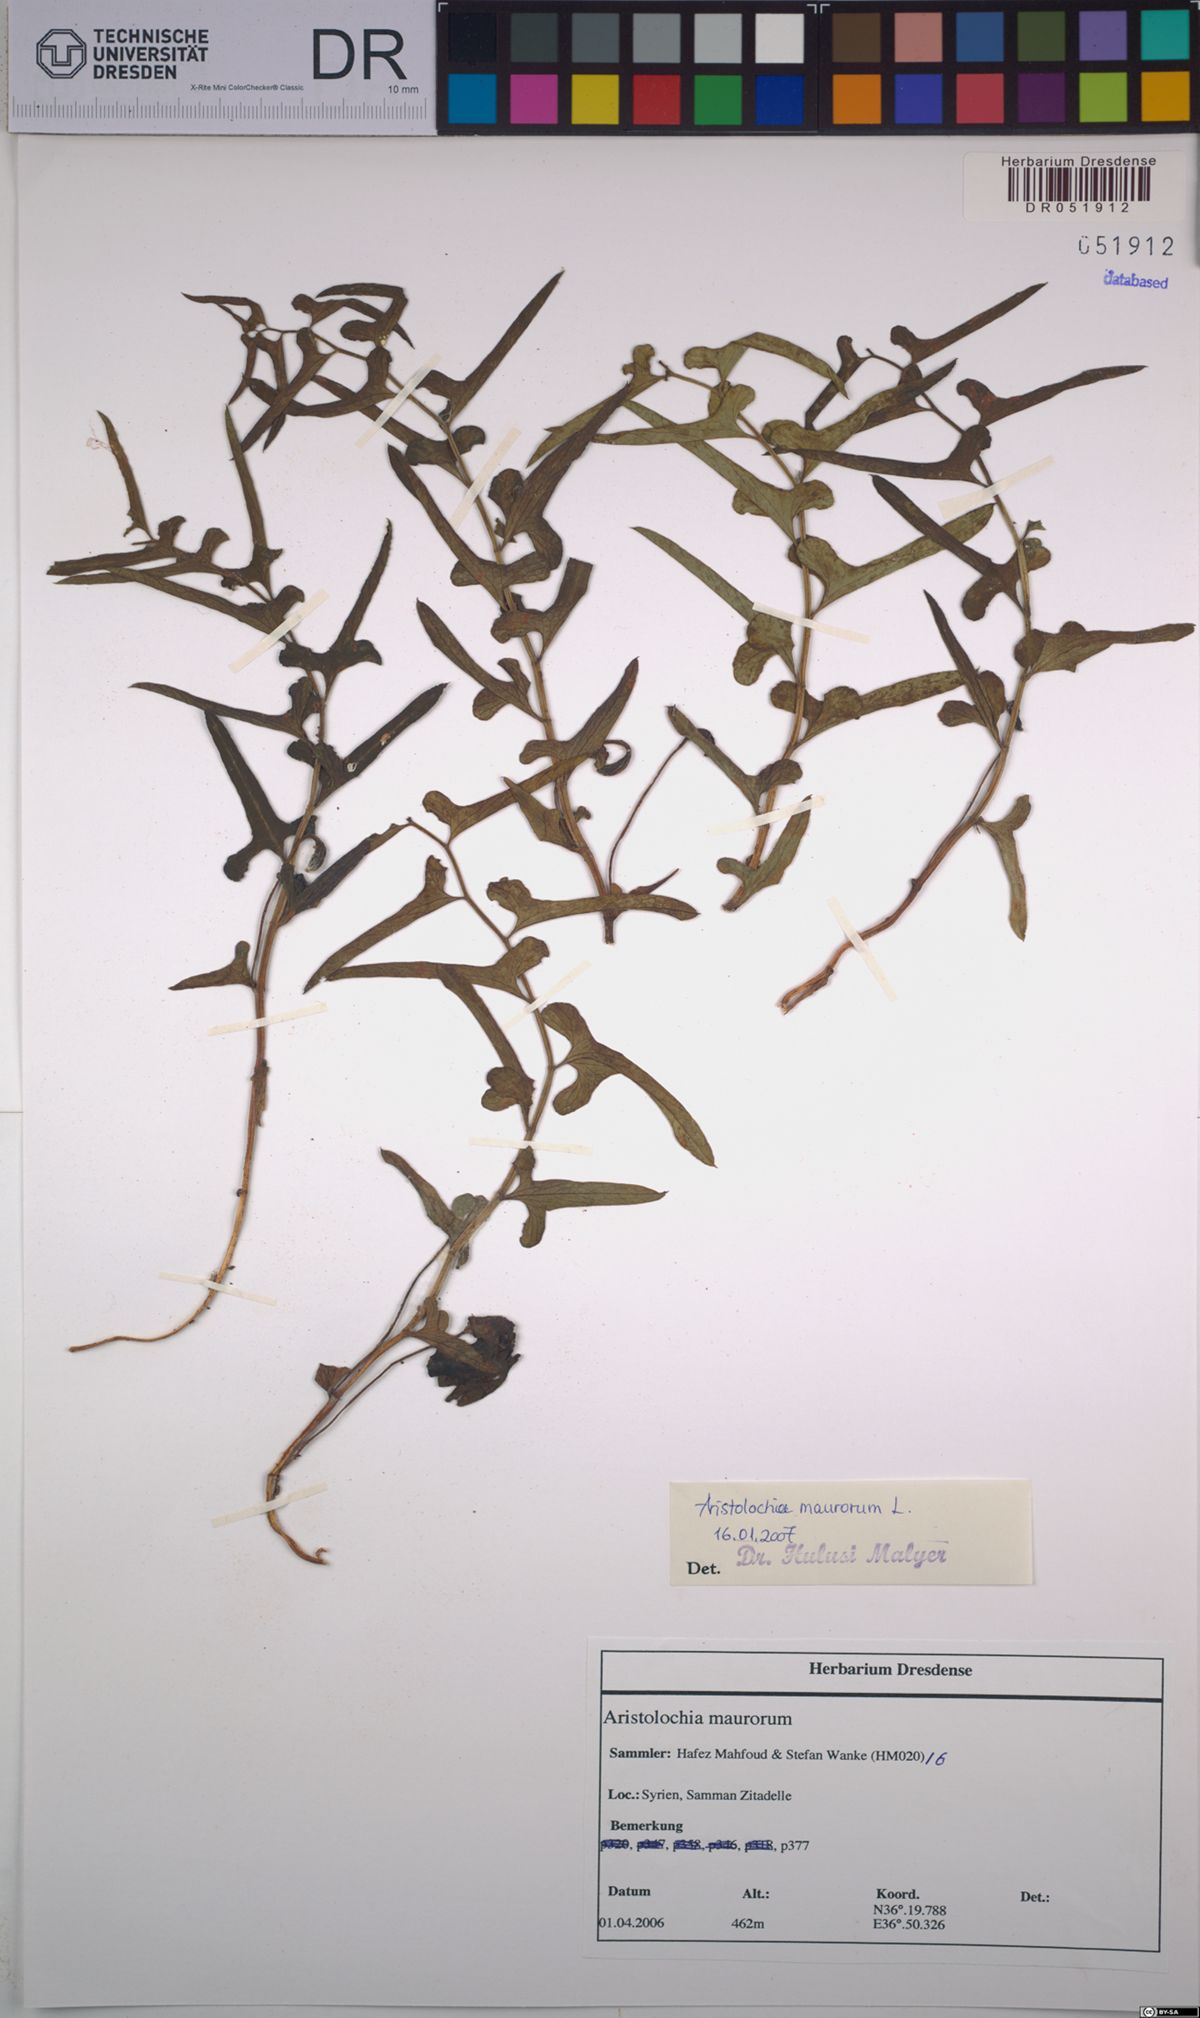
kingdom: Plantae
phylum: Tracheophyta
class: Magnoliopsida
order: Piperales
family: Aristolochiaceae
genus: Aristolochia
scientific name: Aristolochia maurorum
